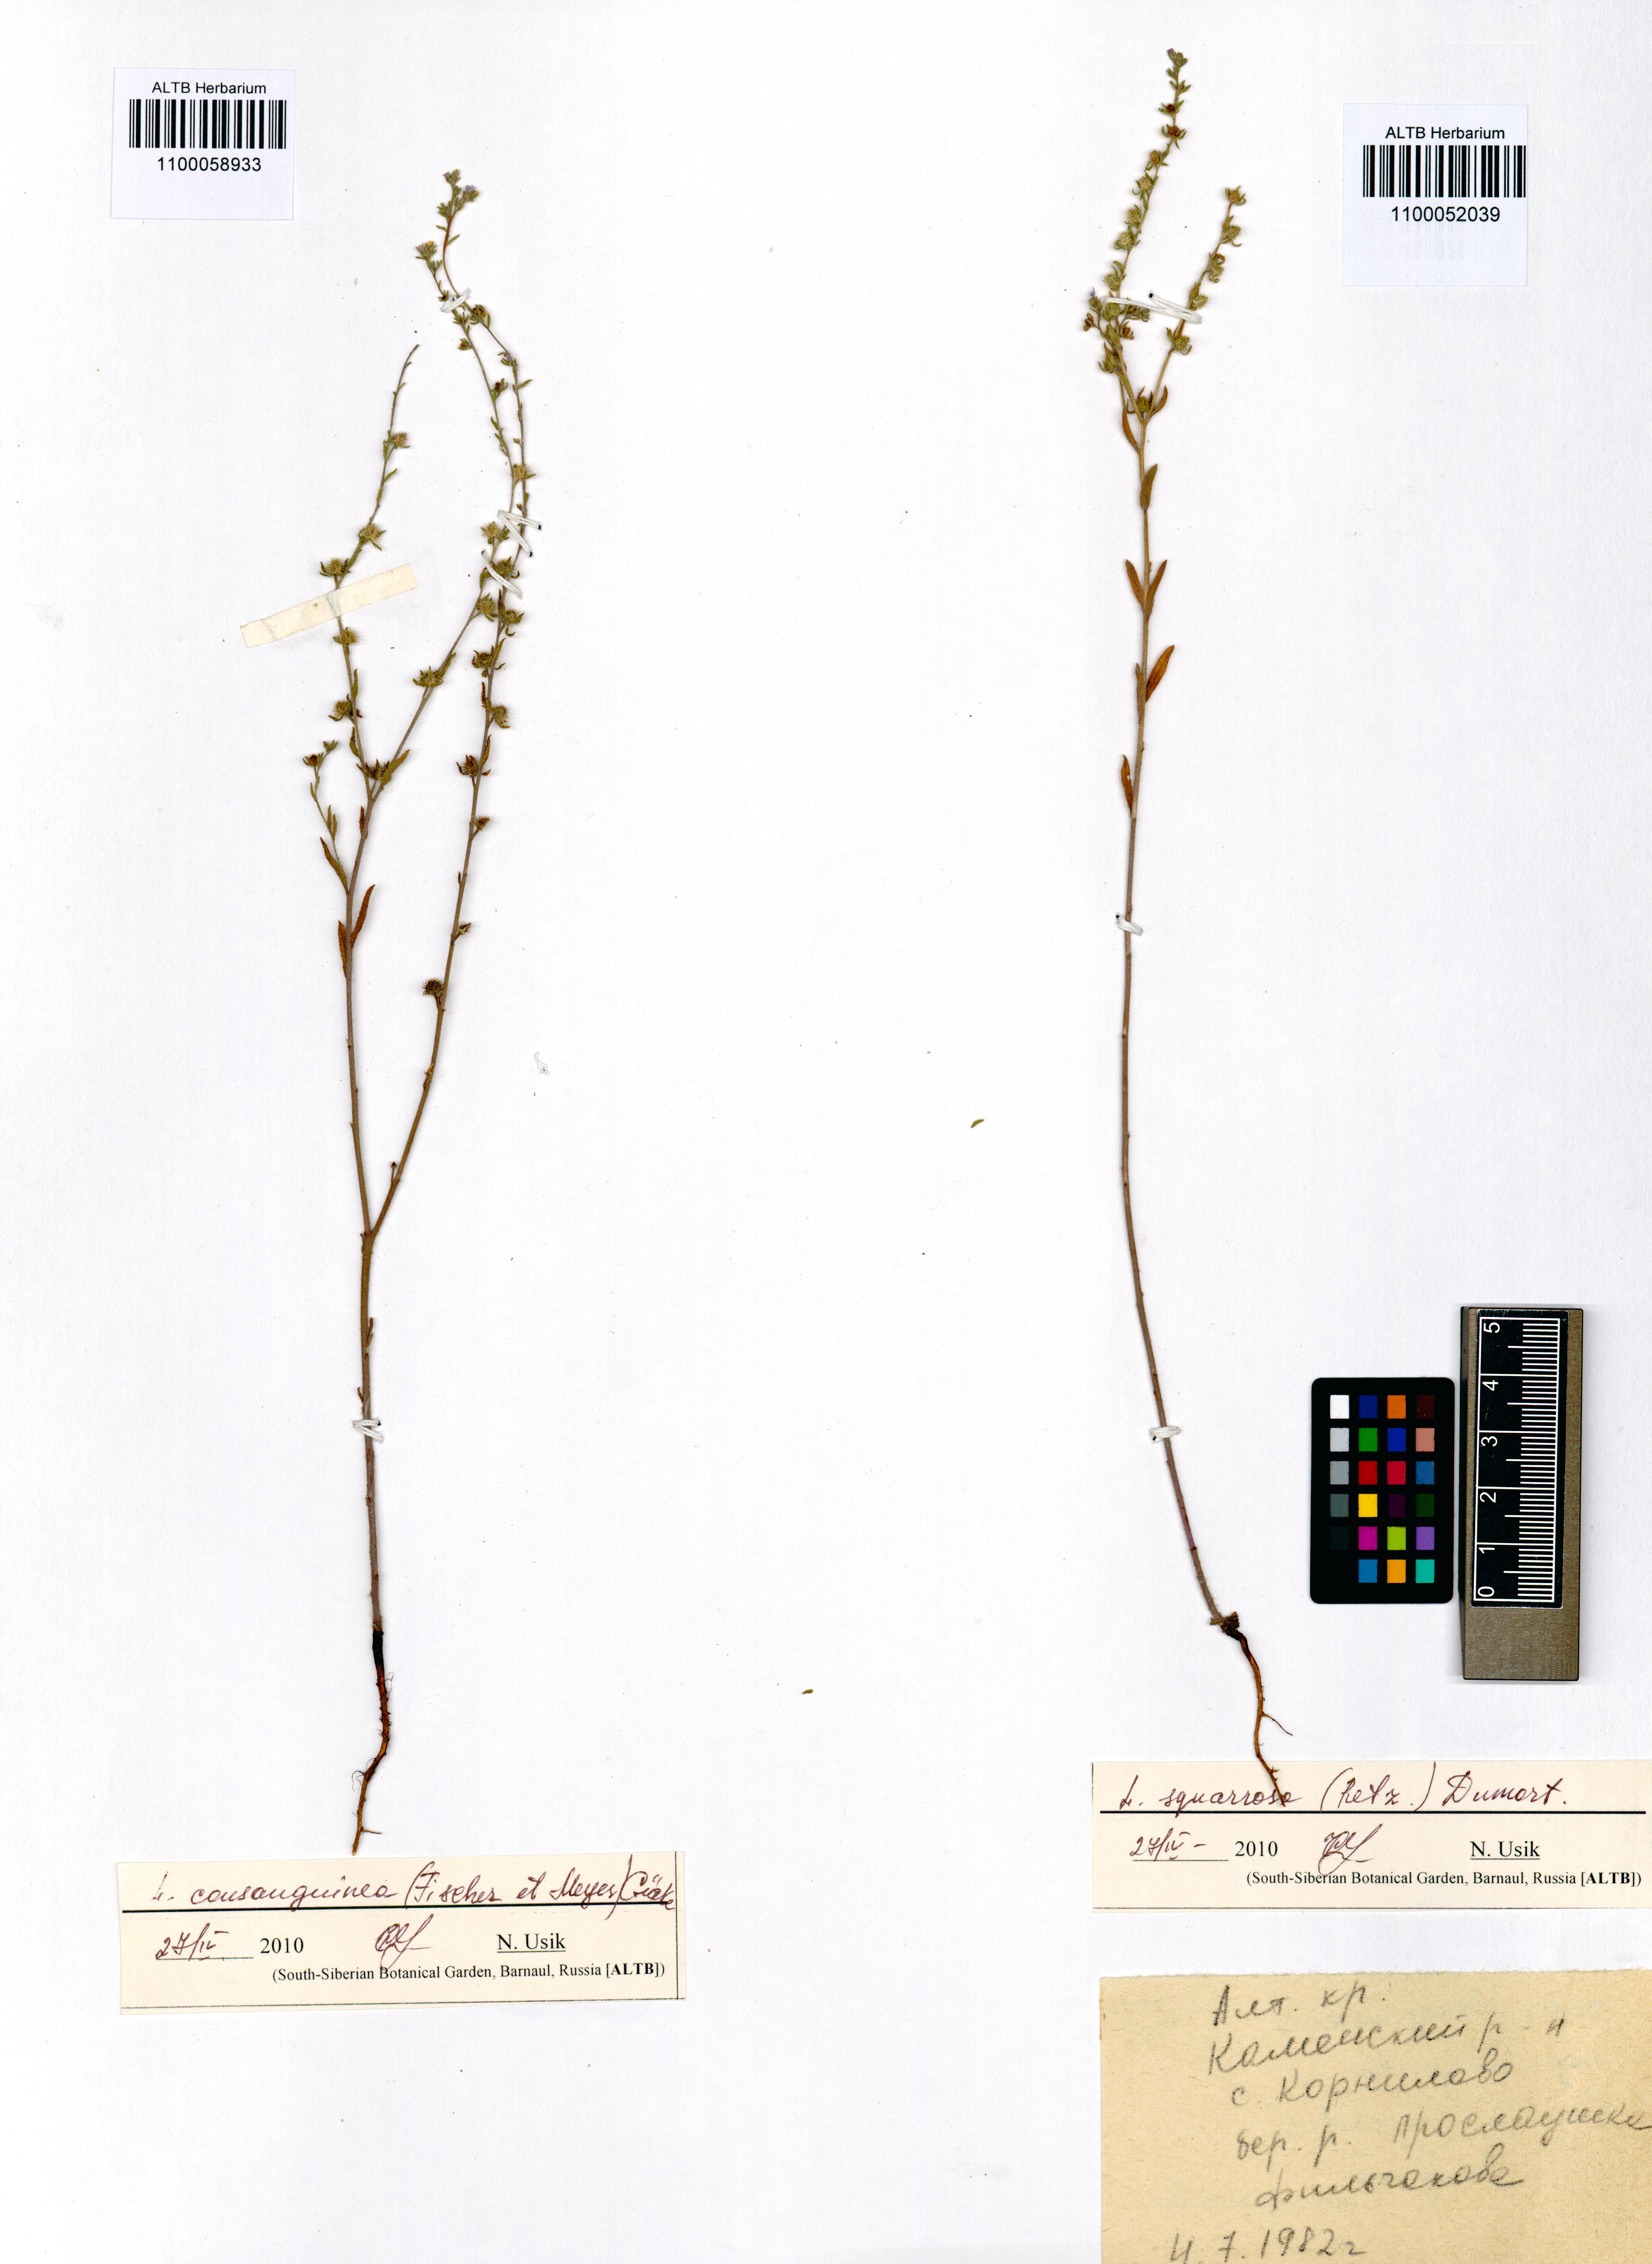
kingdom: Plantae
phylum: Tracheophyta
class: Magnoliopsida
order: Boraginales
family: Boraginaceae
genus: Lappula
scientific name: Lappula squarrosa
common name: European stickseed
